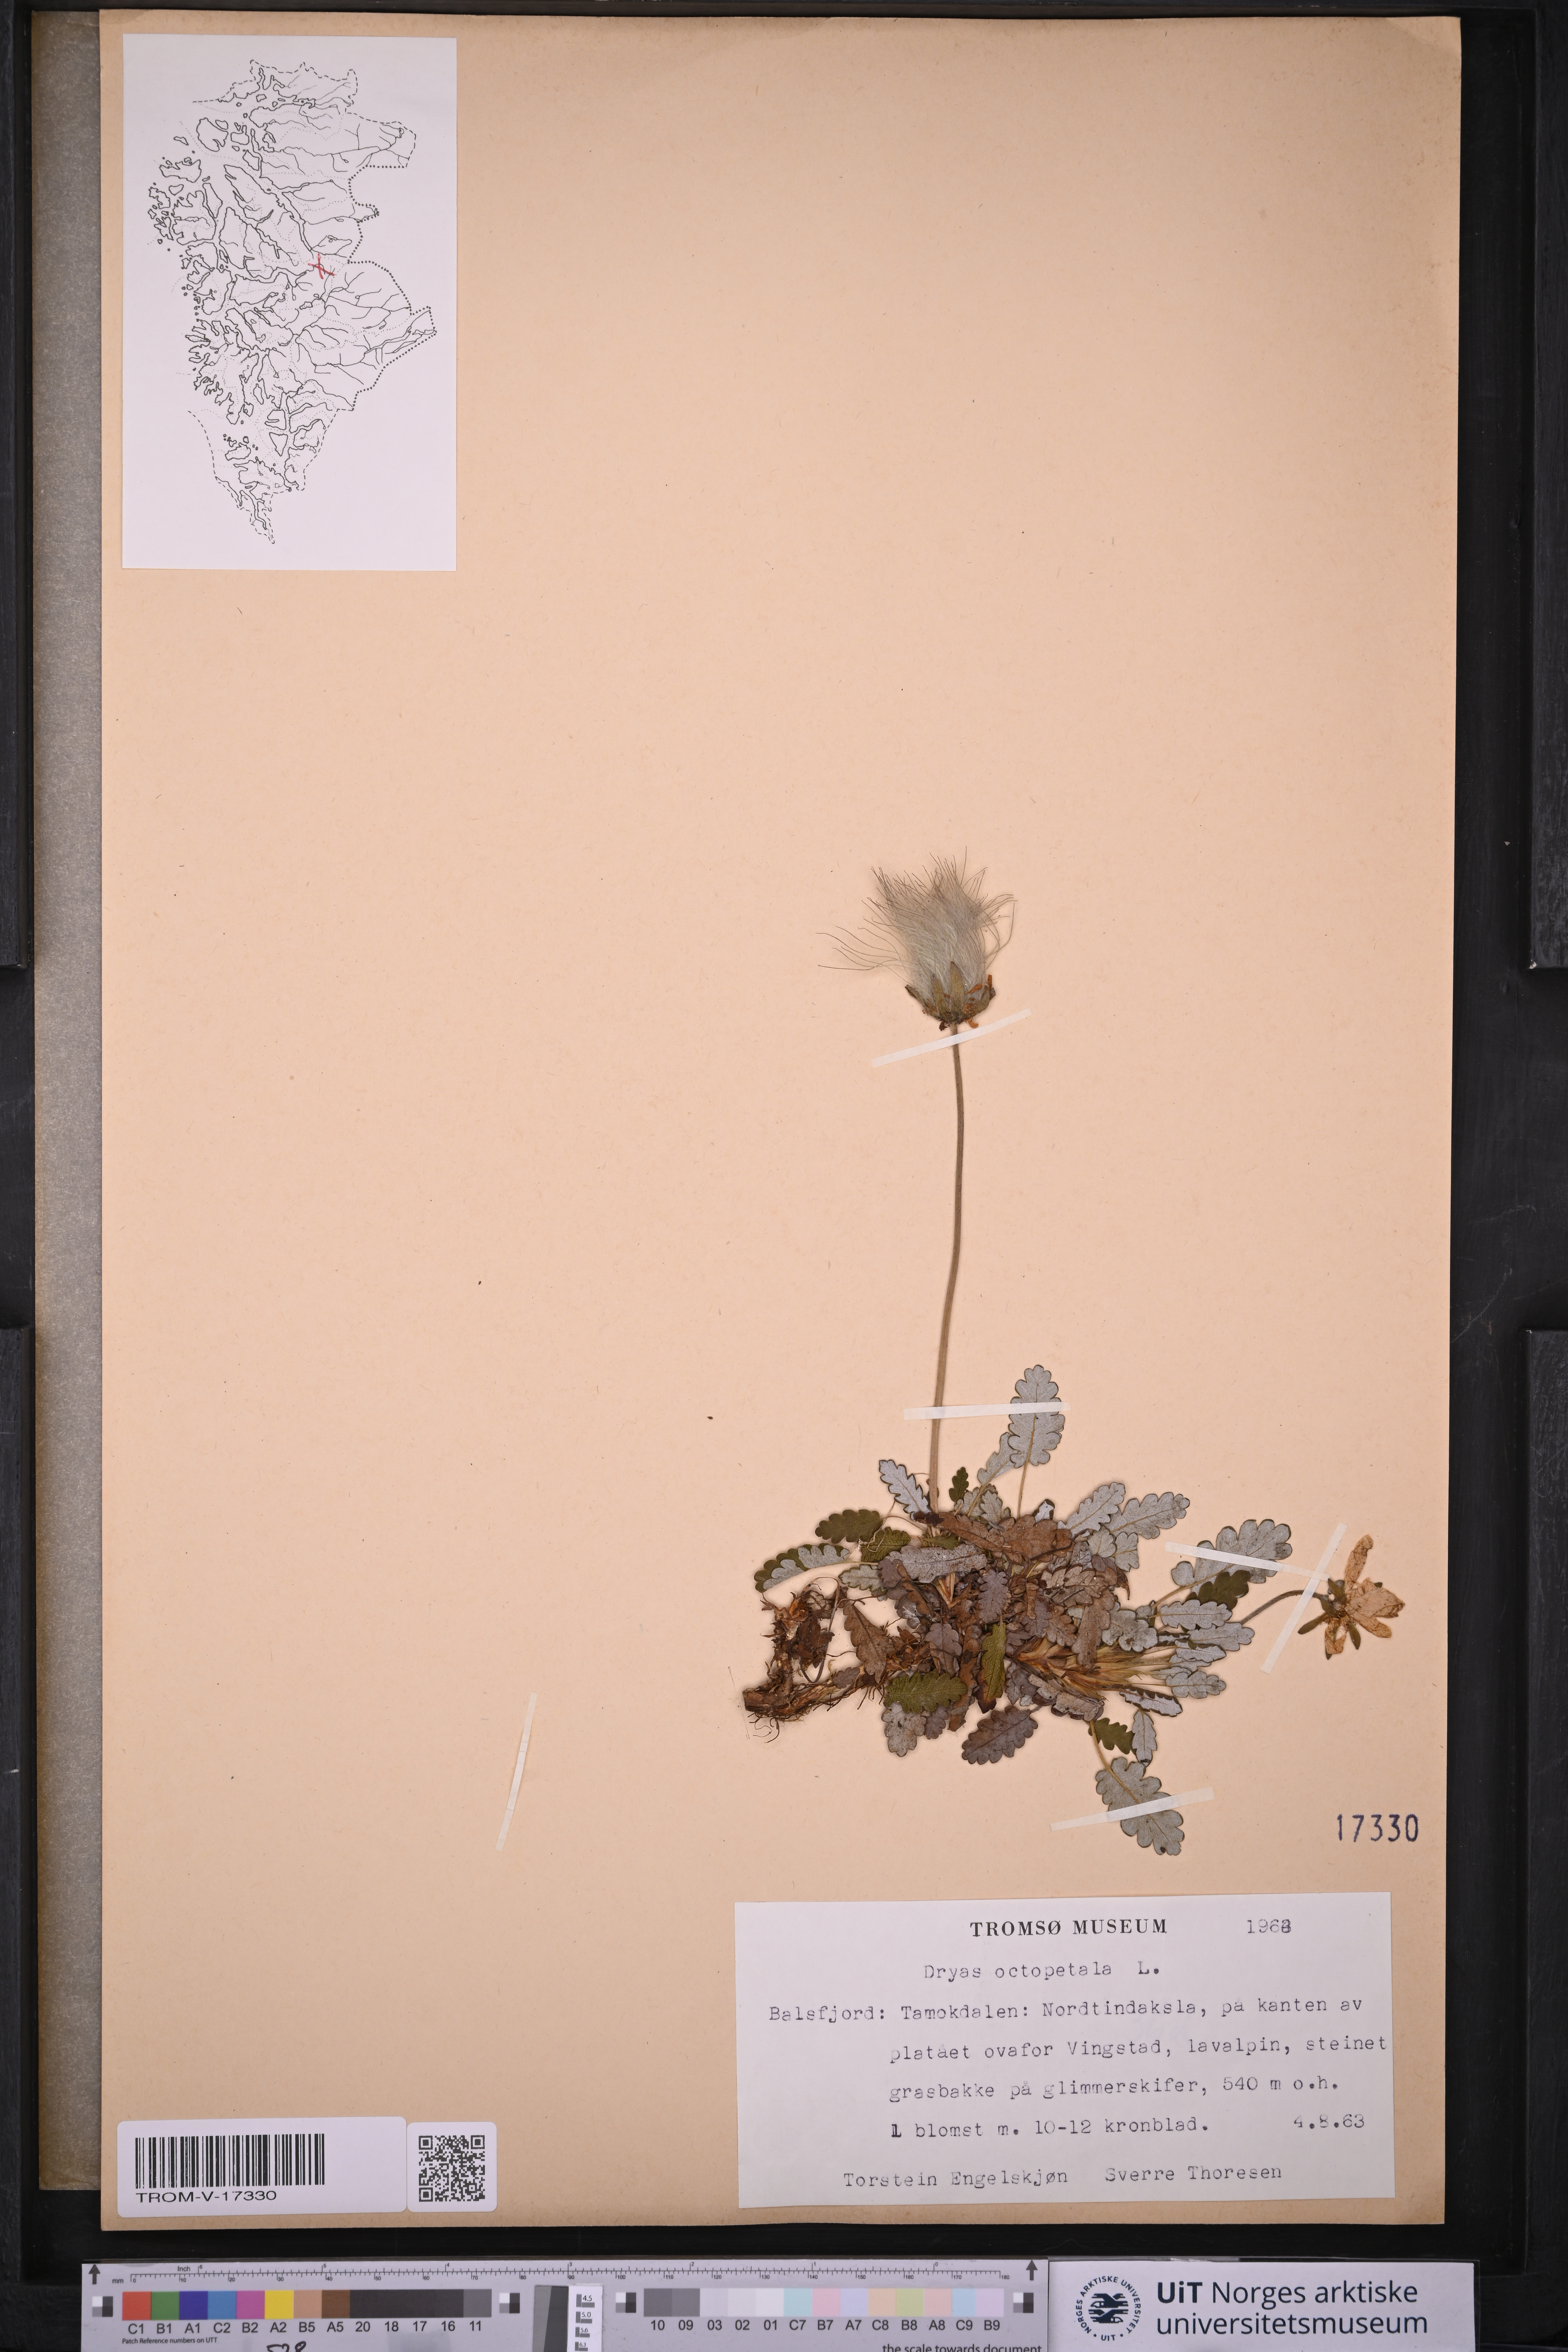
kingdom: Plantae
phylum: Tracheophyta
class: Magnoliopsida
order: Rosales
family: Rosaceae
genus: Dryas
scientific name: Dryas octopetala
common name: Eight-petal mountain-avens
